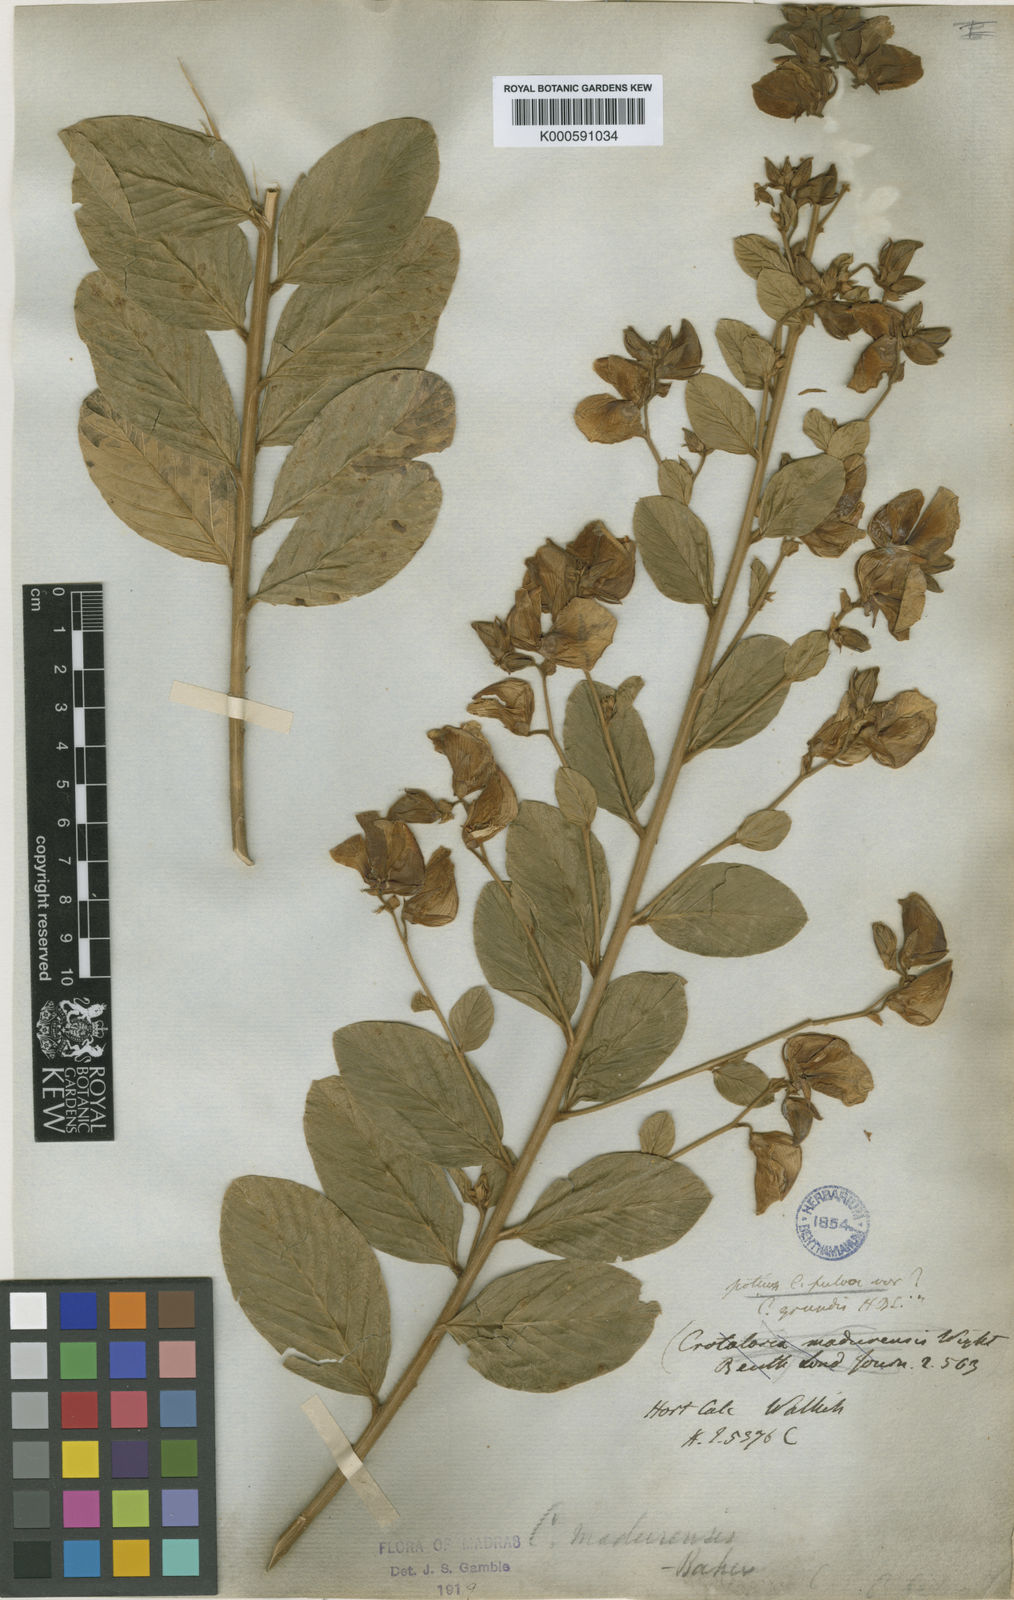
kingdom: Plantae
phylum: Tracheophyta
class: Magnoliopsida
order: Fabales
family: Fabaceae
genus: Crotalaria
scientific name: Crotalaria
